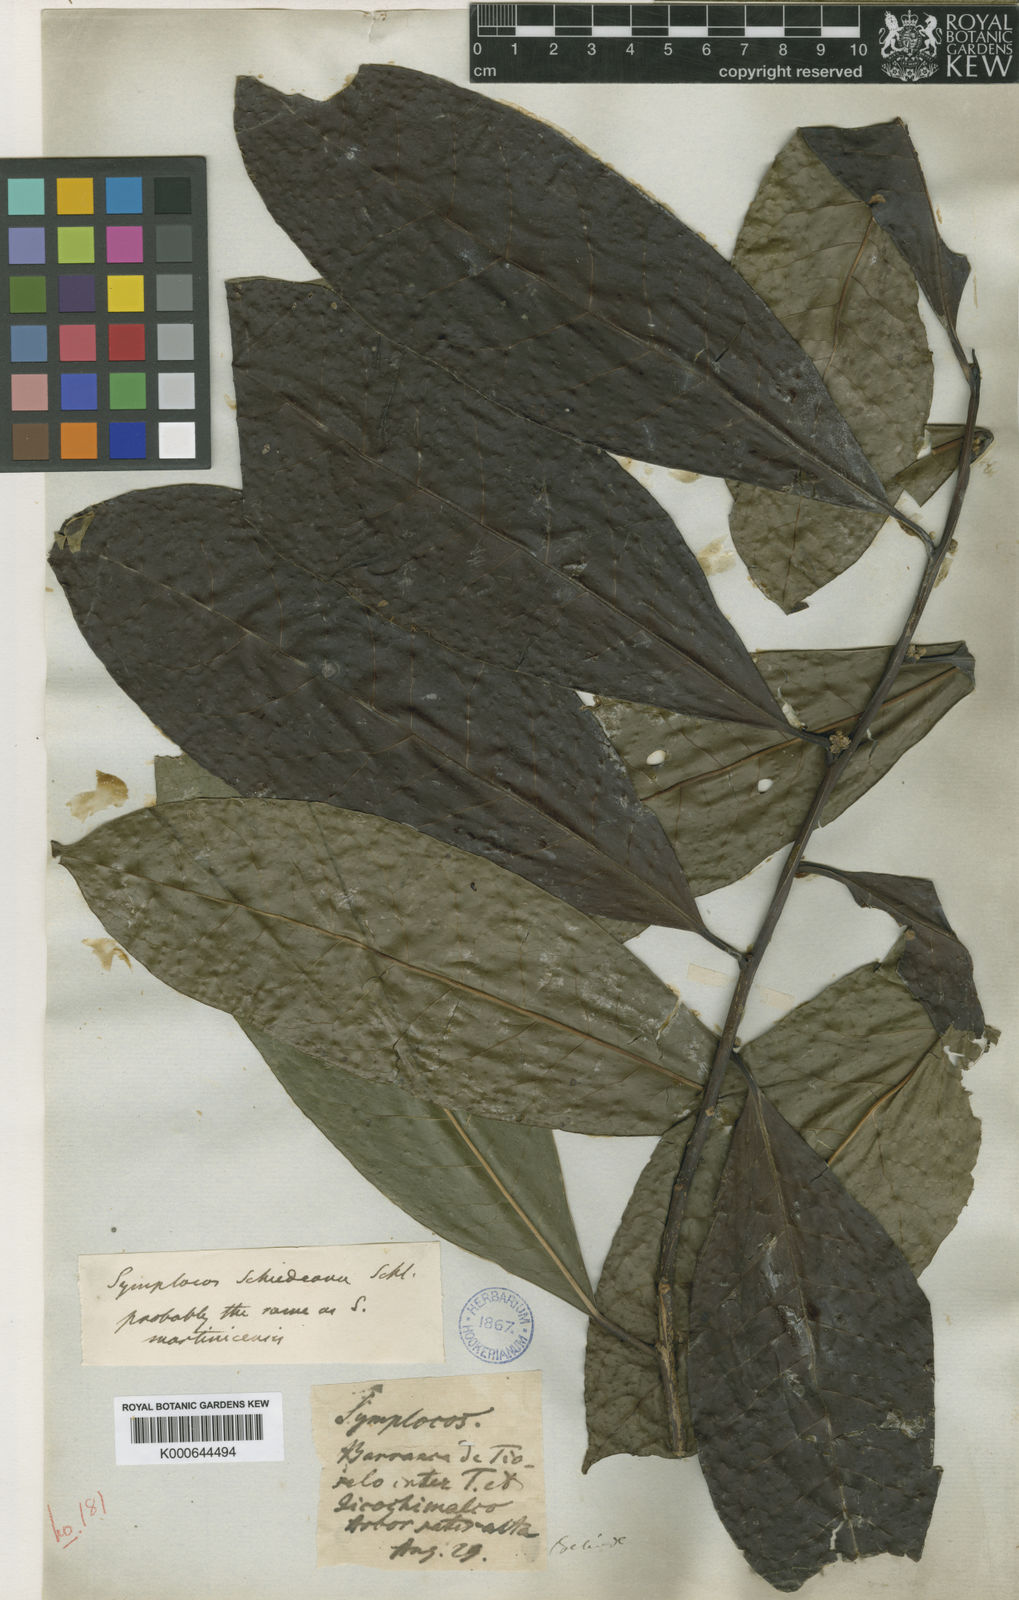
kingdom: Plantae
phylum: Tracheophyta
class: Magnoliopsida
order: Ericales
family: Symplocaceae
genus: Symplocos
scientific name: Symplocos schiedeana
